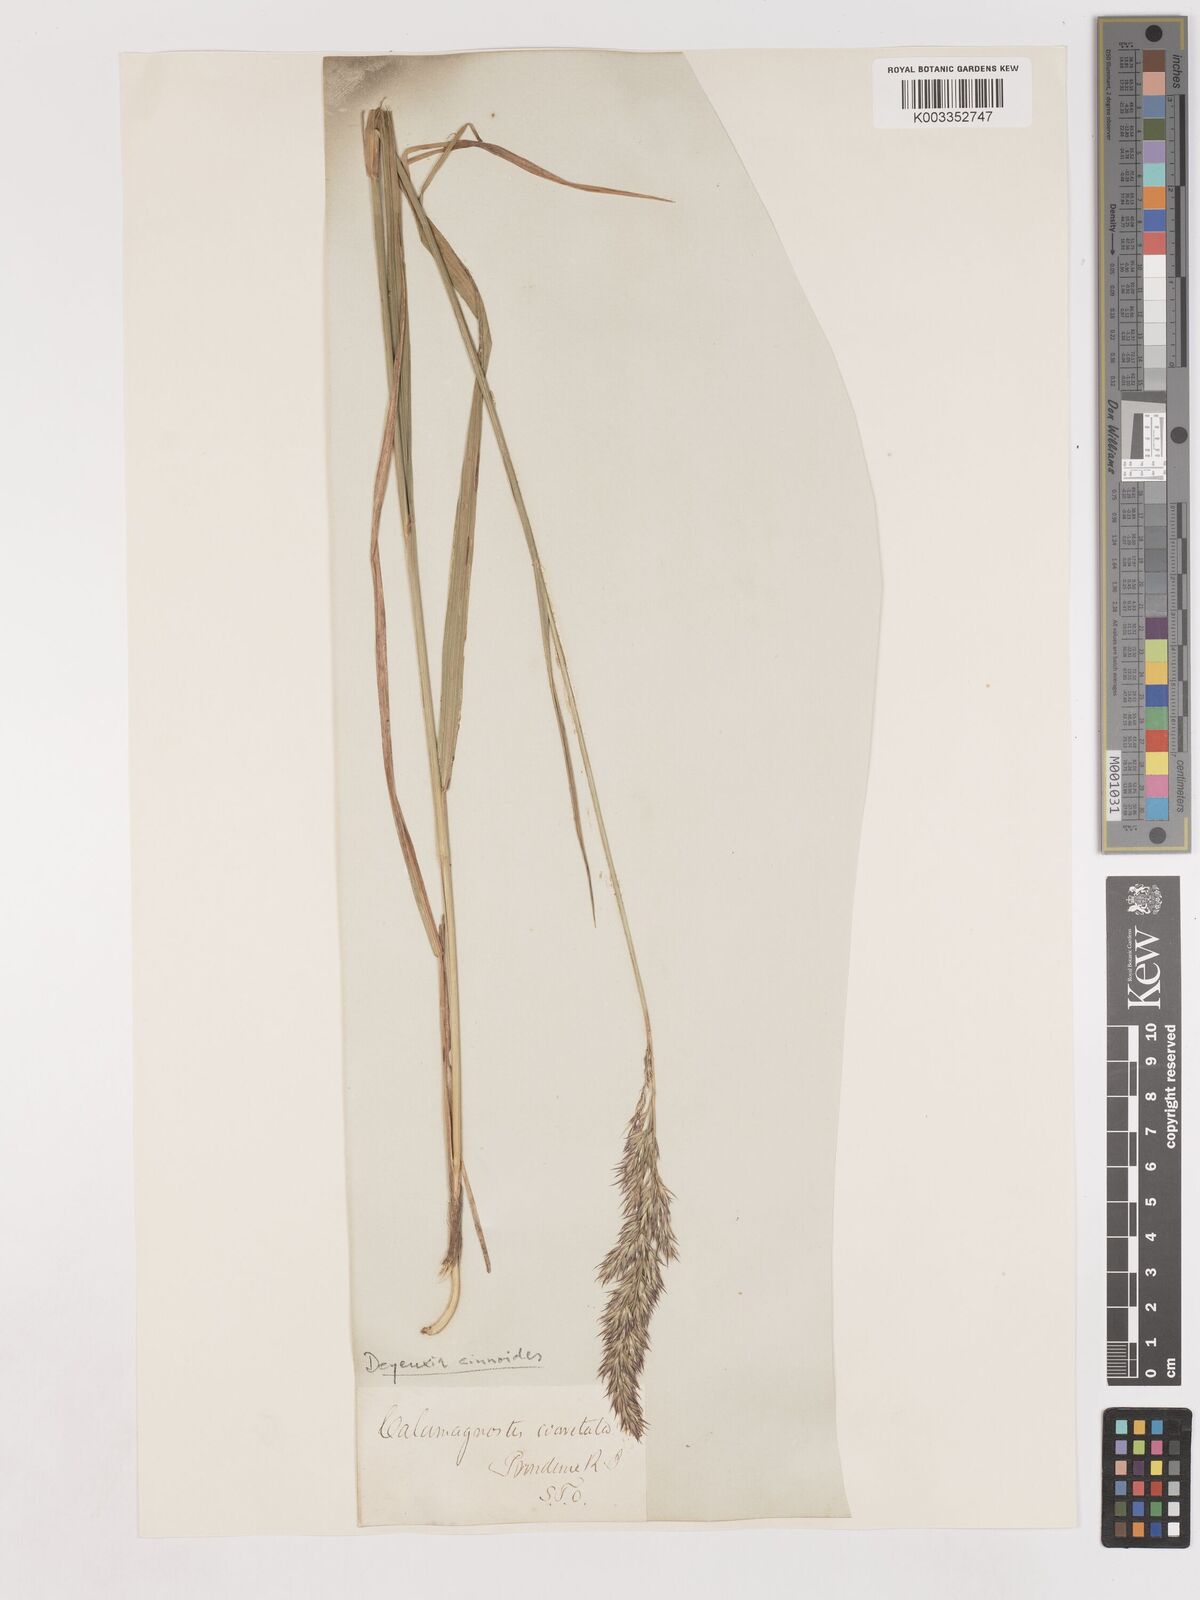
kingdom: Plantae
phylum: Tracheophyta
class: Liliopsida
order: Poales
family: Poaceae
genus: Calamagrostis
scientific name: Calamagrostis canadensis
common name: Canada bluejoint
